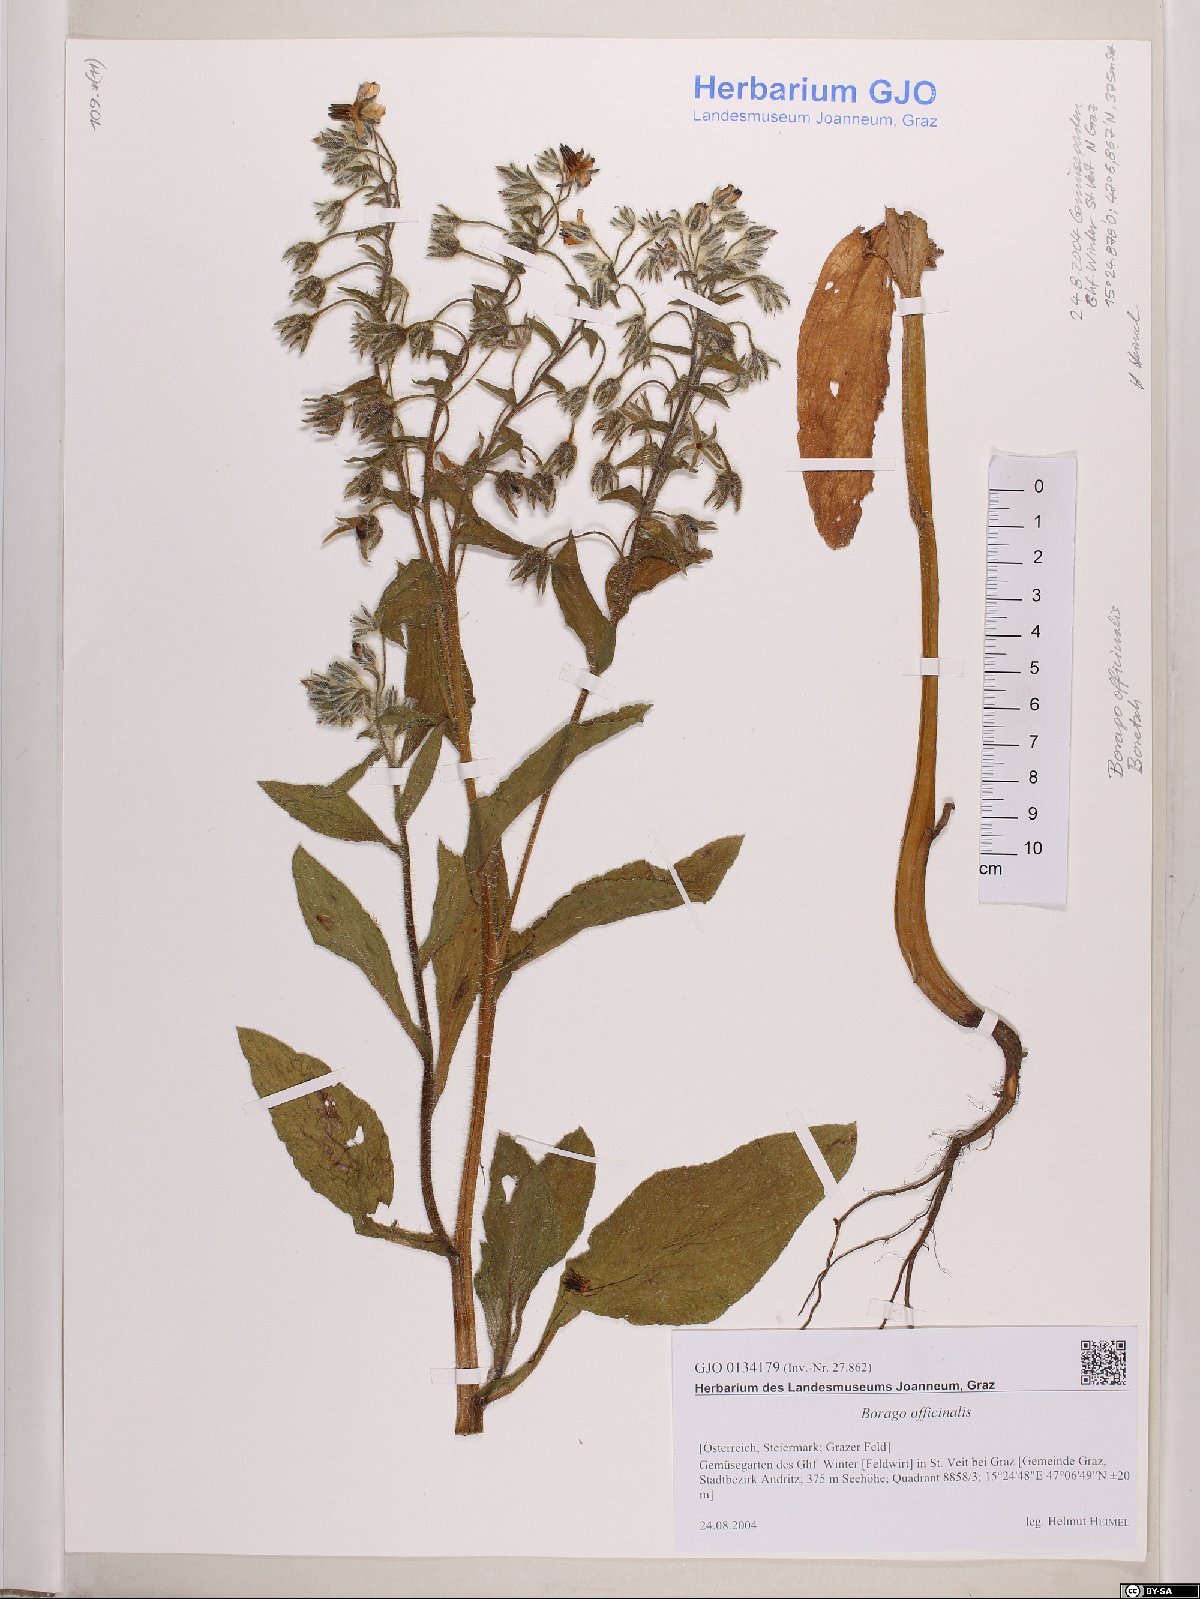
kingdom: Plantae
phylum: Tracheophyta
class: Magnoliopsida
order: Boraginales
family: Boraginaceae
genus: Borago
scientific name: Borago officinalis
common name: Borage
